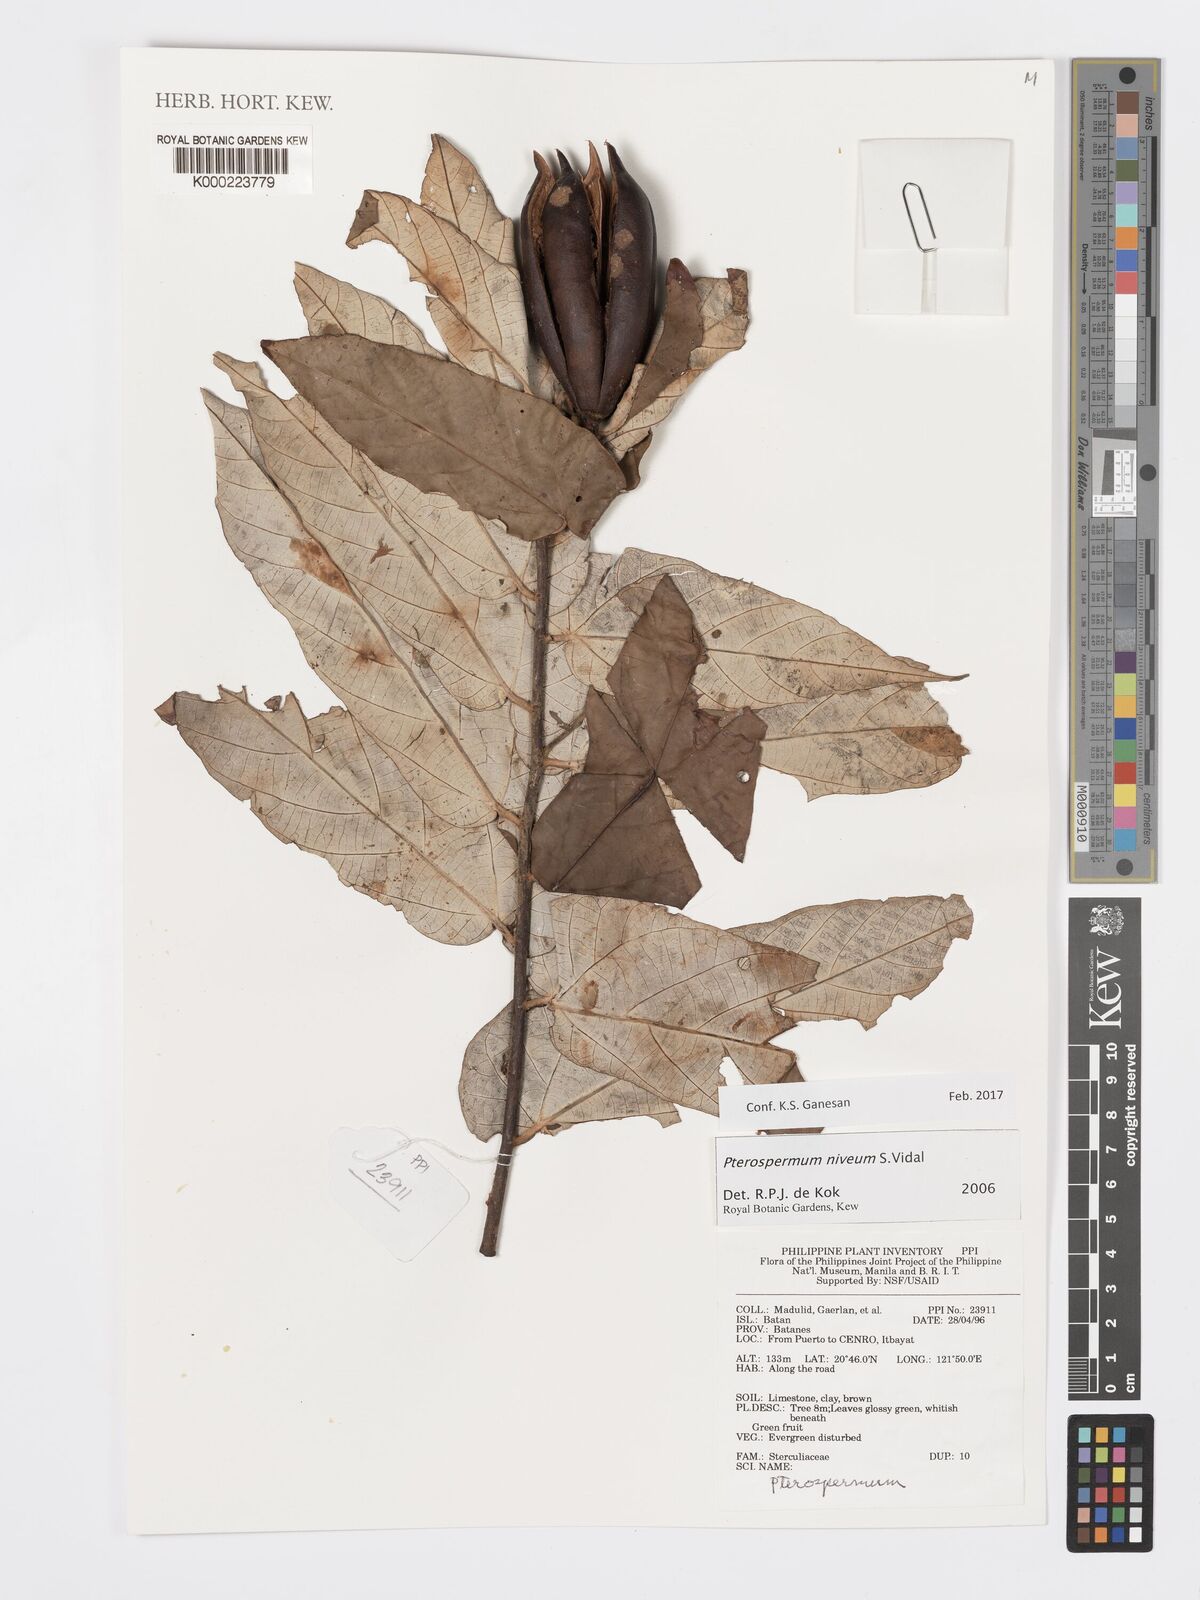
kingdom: Plantae
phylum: Tracheophyta
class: Magnoliopsida
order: Malvales
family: Malvaceae
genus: Pterospermum
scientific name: Pterospermum niveum
